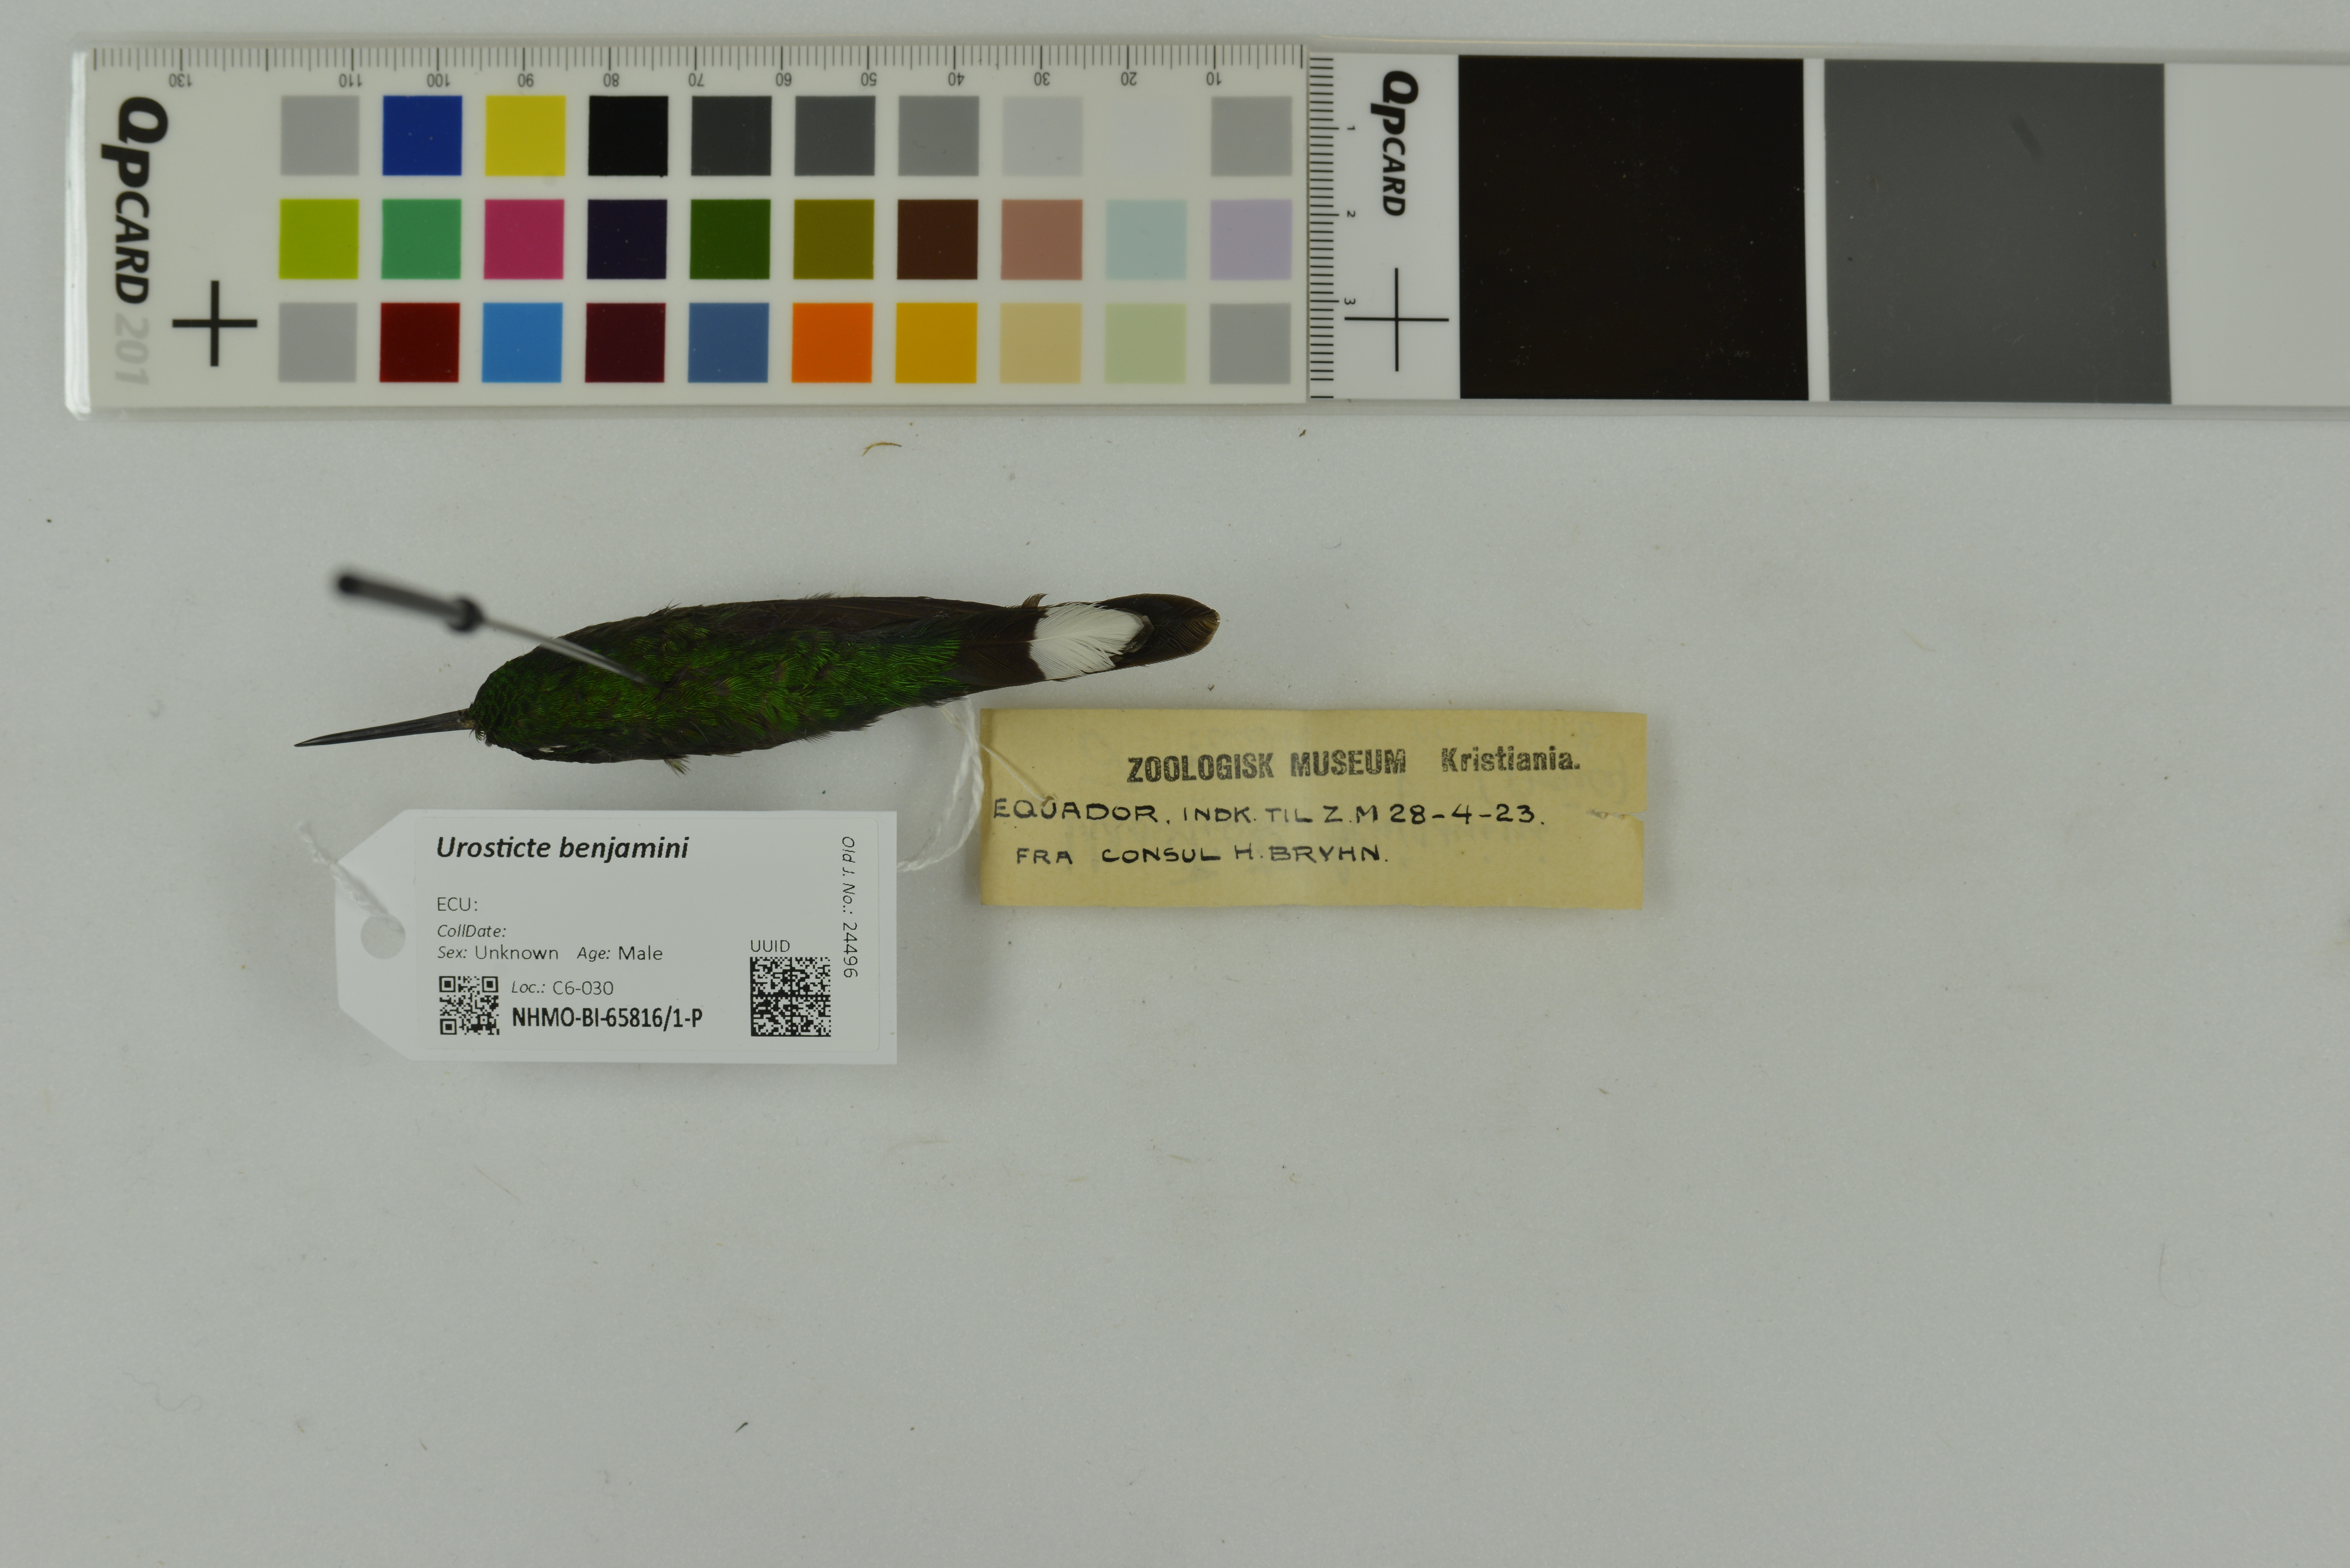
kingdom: Animalia
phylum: Chordata
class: Aves
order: Apodiformes
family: Trochilidae
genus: Urosticte
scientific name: Urosticte benjamini
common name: Purple-bibbed whitetip
